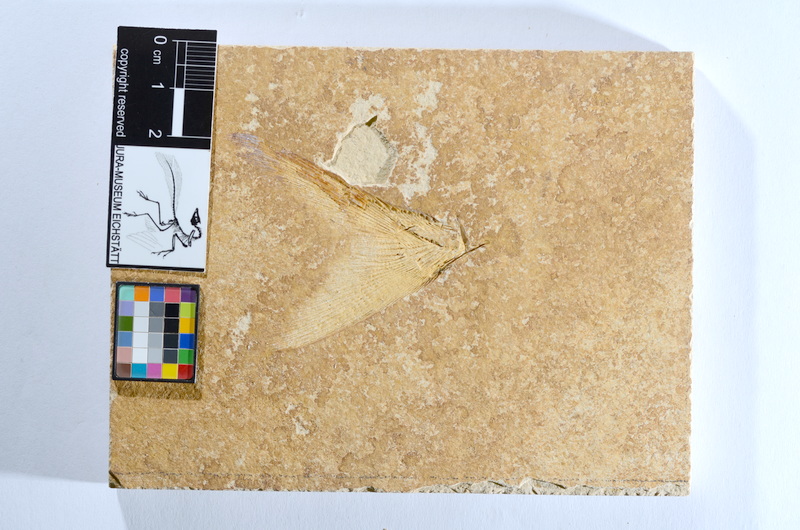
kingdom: Animalia
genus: Halecomorphi
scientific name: Halecomorphi
